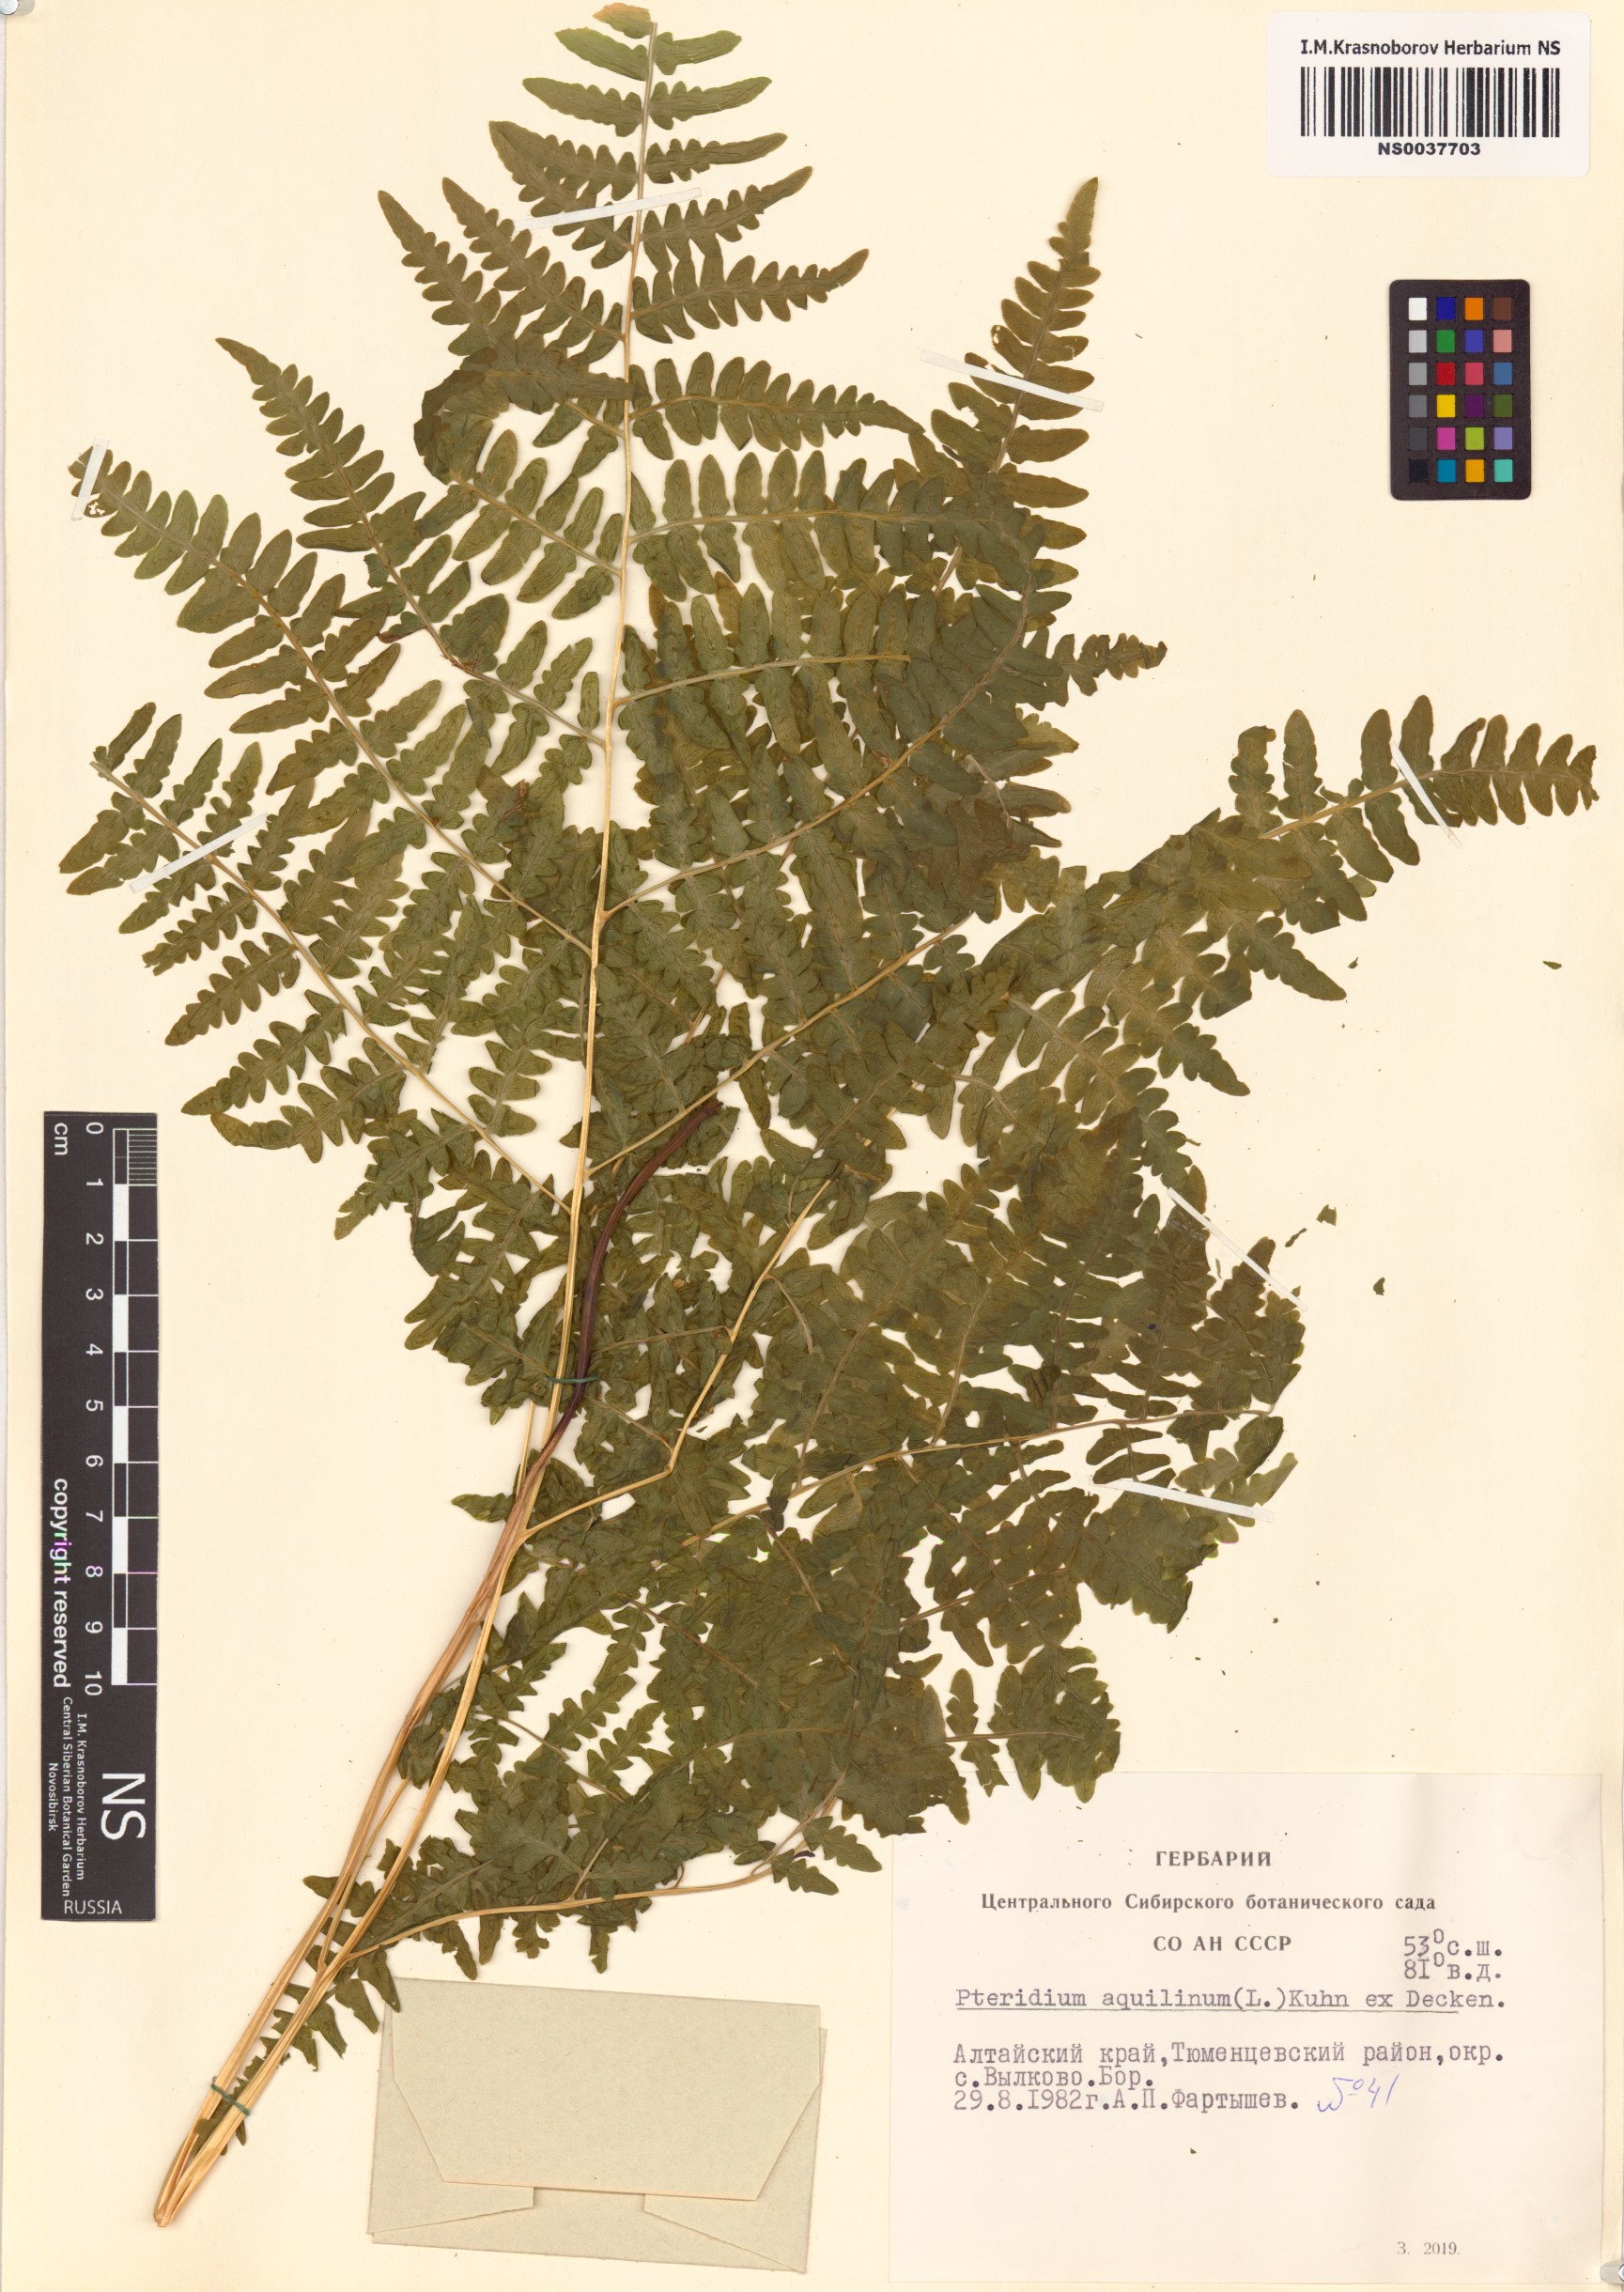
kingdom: Plantae
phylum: Tracheophyta
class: Polypodiopsida
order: Polypodiales
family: Dennstaedtiaceae
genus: Pteridium
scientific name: Pteridium aquilinum
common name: Bracken
